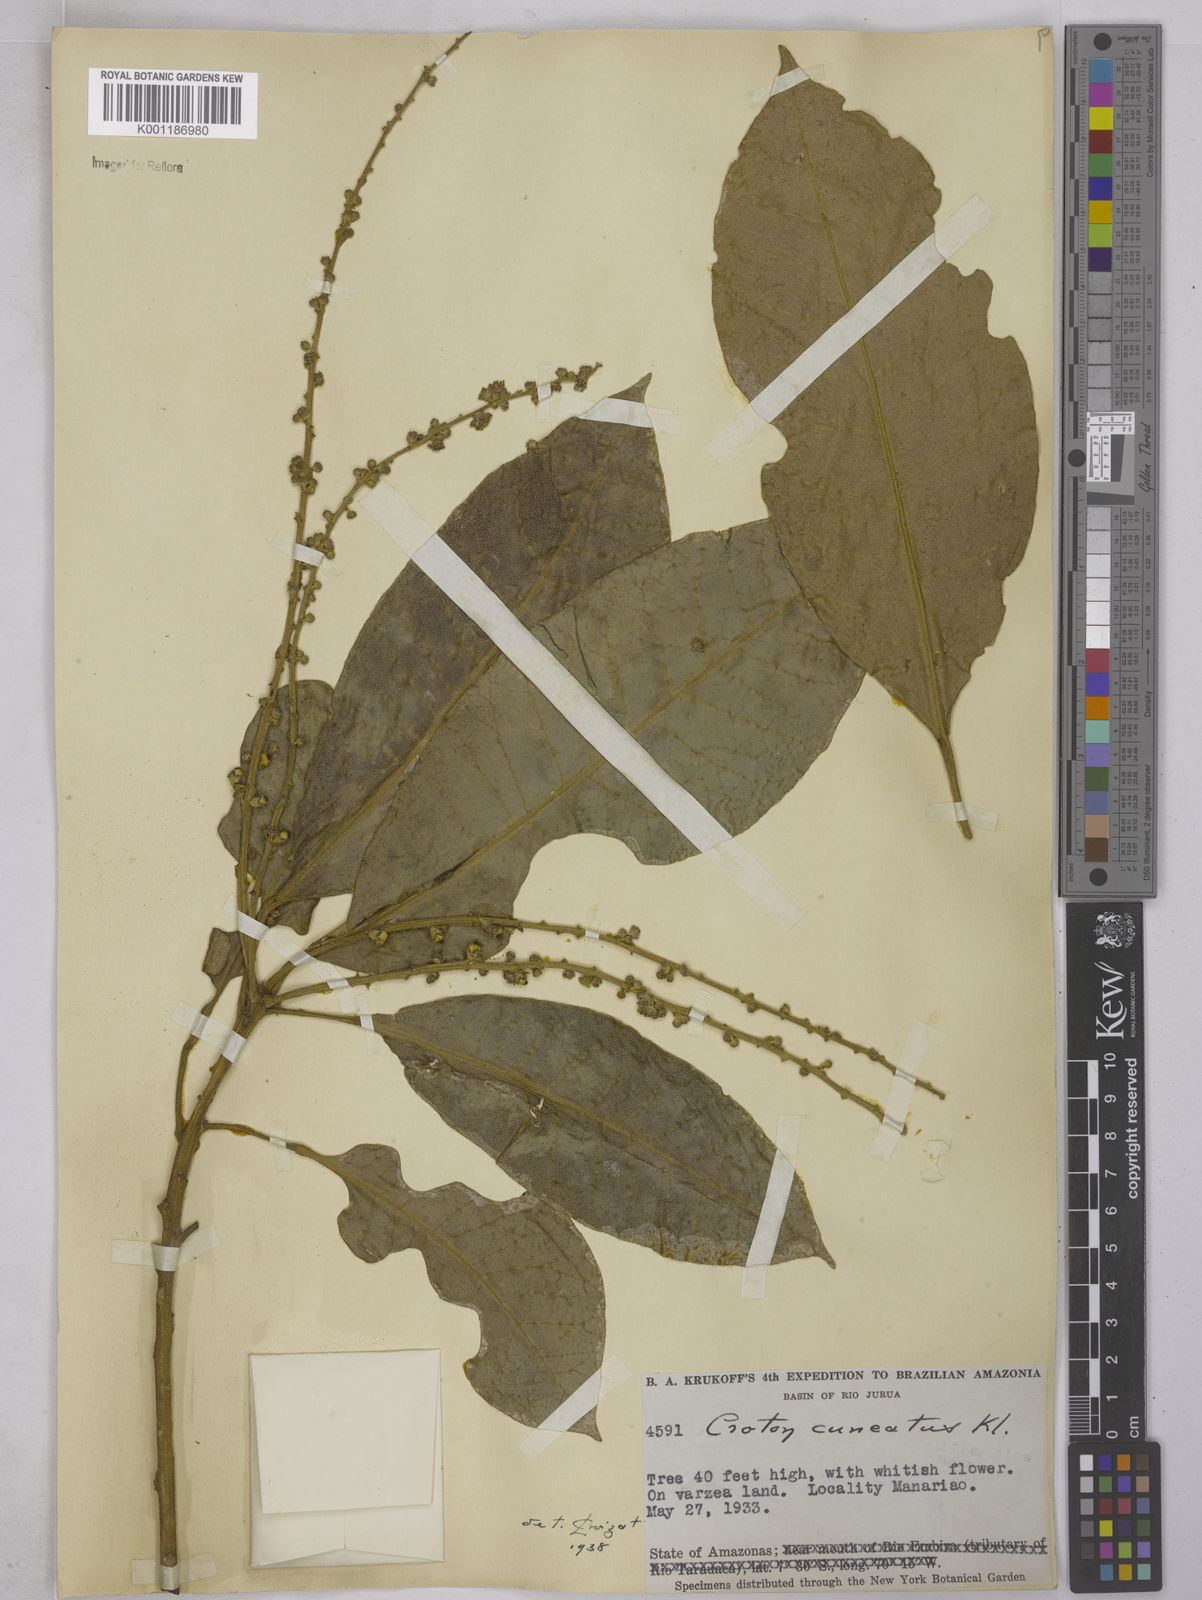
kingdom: Plantae
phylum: Tracheophyta
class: Magnoliopsida
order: Malpighiales
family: Euphorbiaceae
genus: Croton
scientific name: Croton
